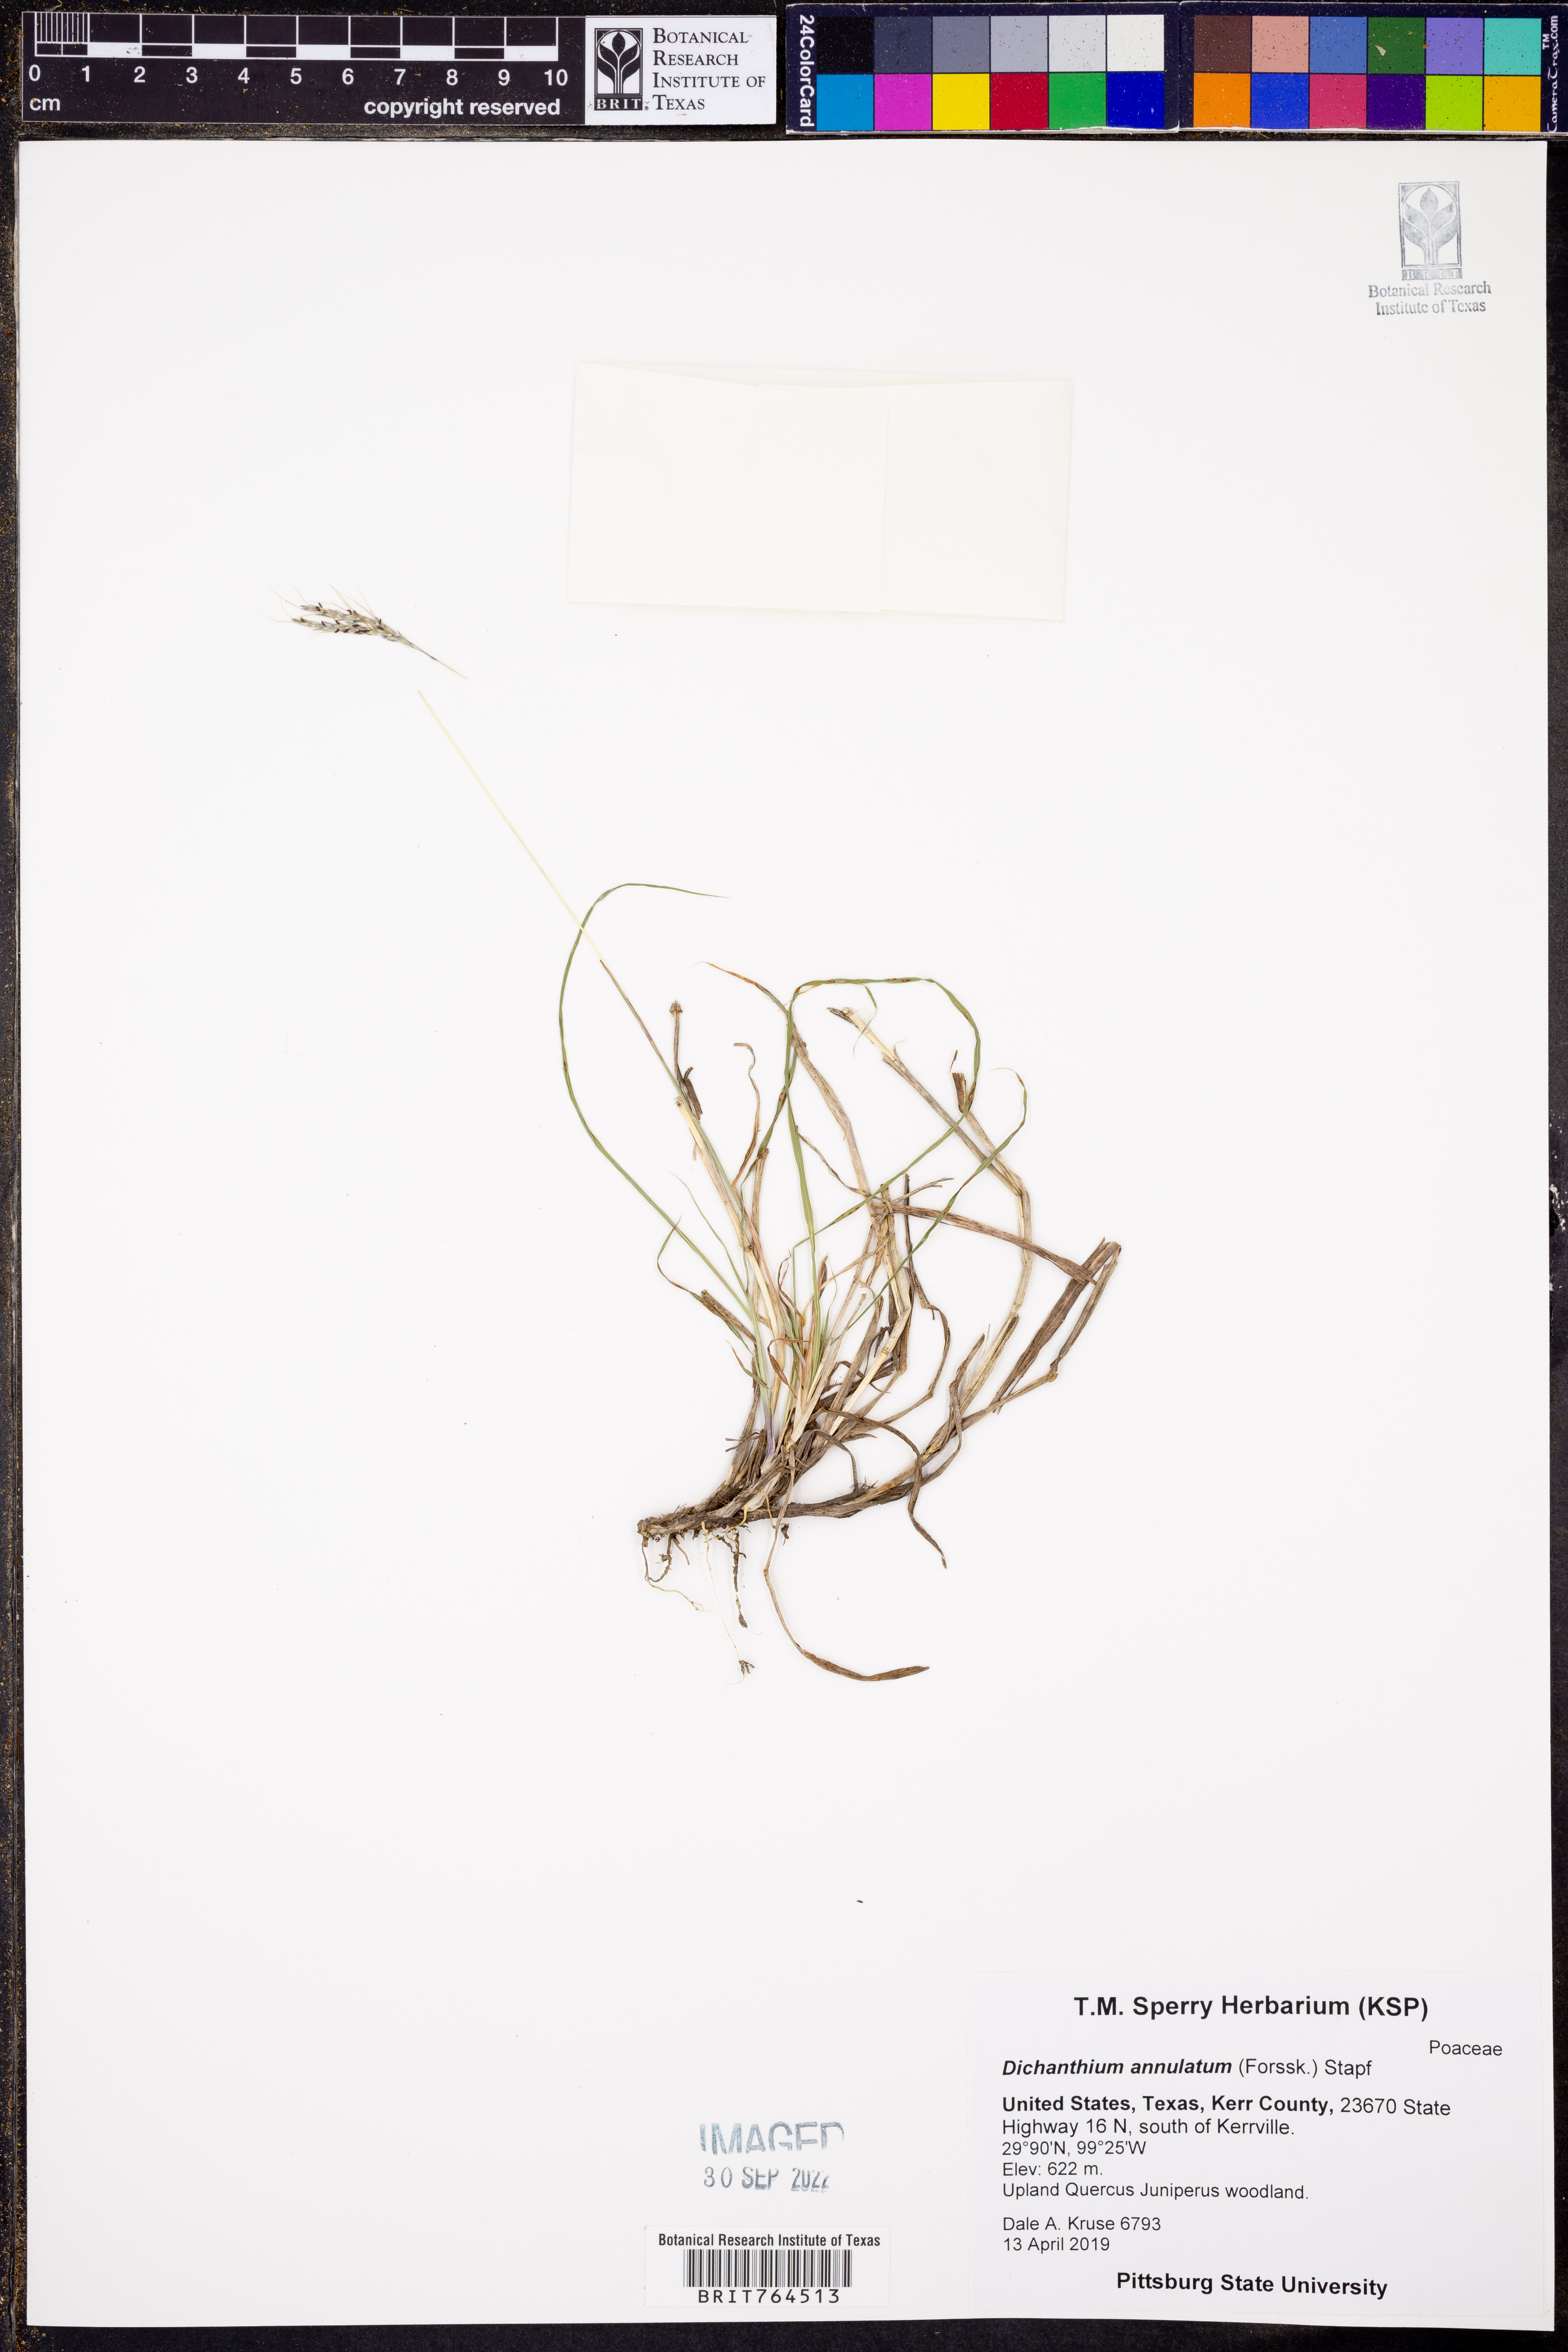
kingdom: Plantae
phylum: Tracheophyta
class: Liliopsida
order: Poales
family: Poaceae
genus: Dichanthelium
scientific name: Dichanthelium annulum
